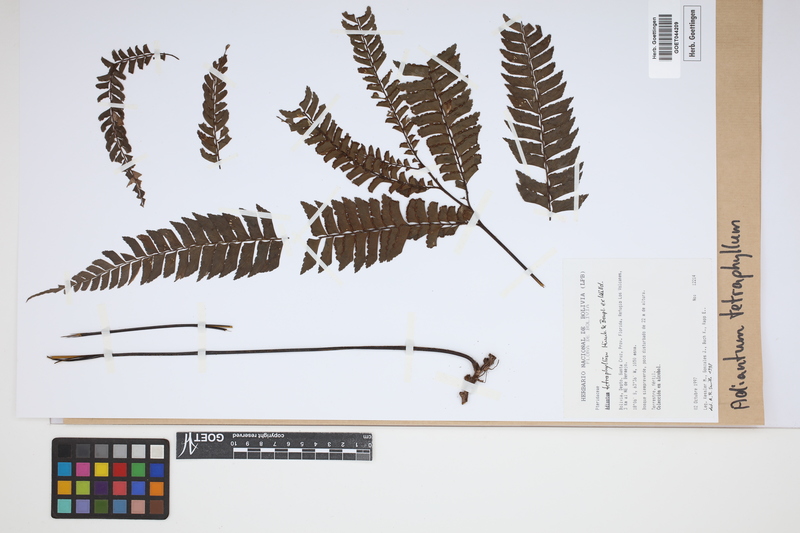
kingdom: Plantae
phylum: Tracheophyta
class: Polypodiopsida
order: Polypodiales
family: Pteridaceae
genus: Adiantum
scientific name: Adiantum tetraphyllum
